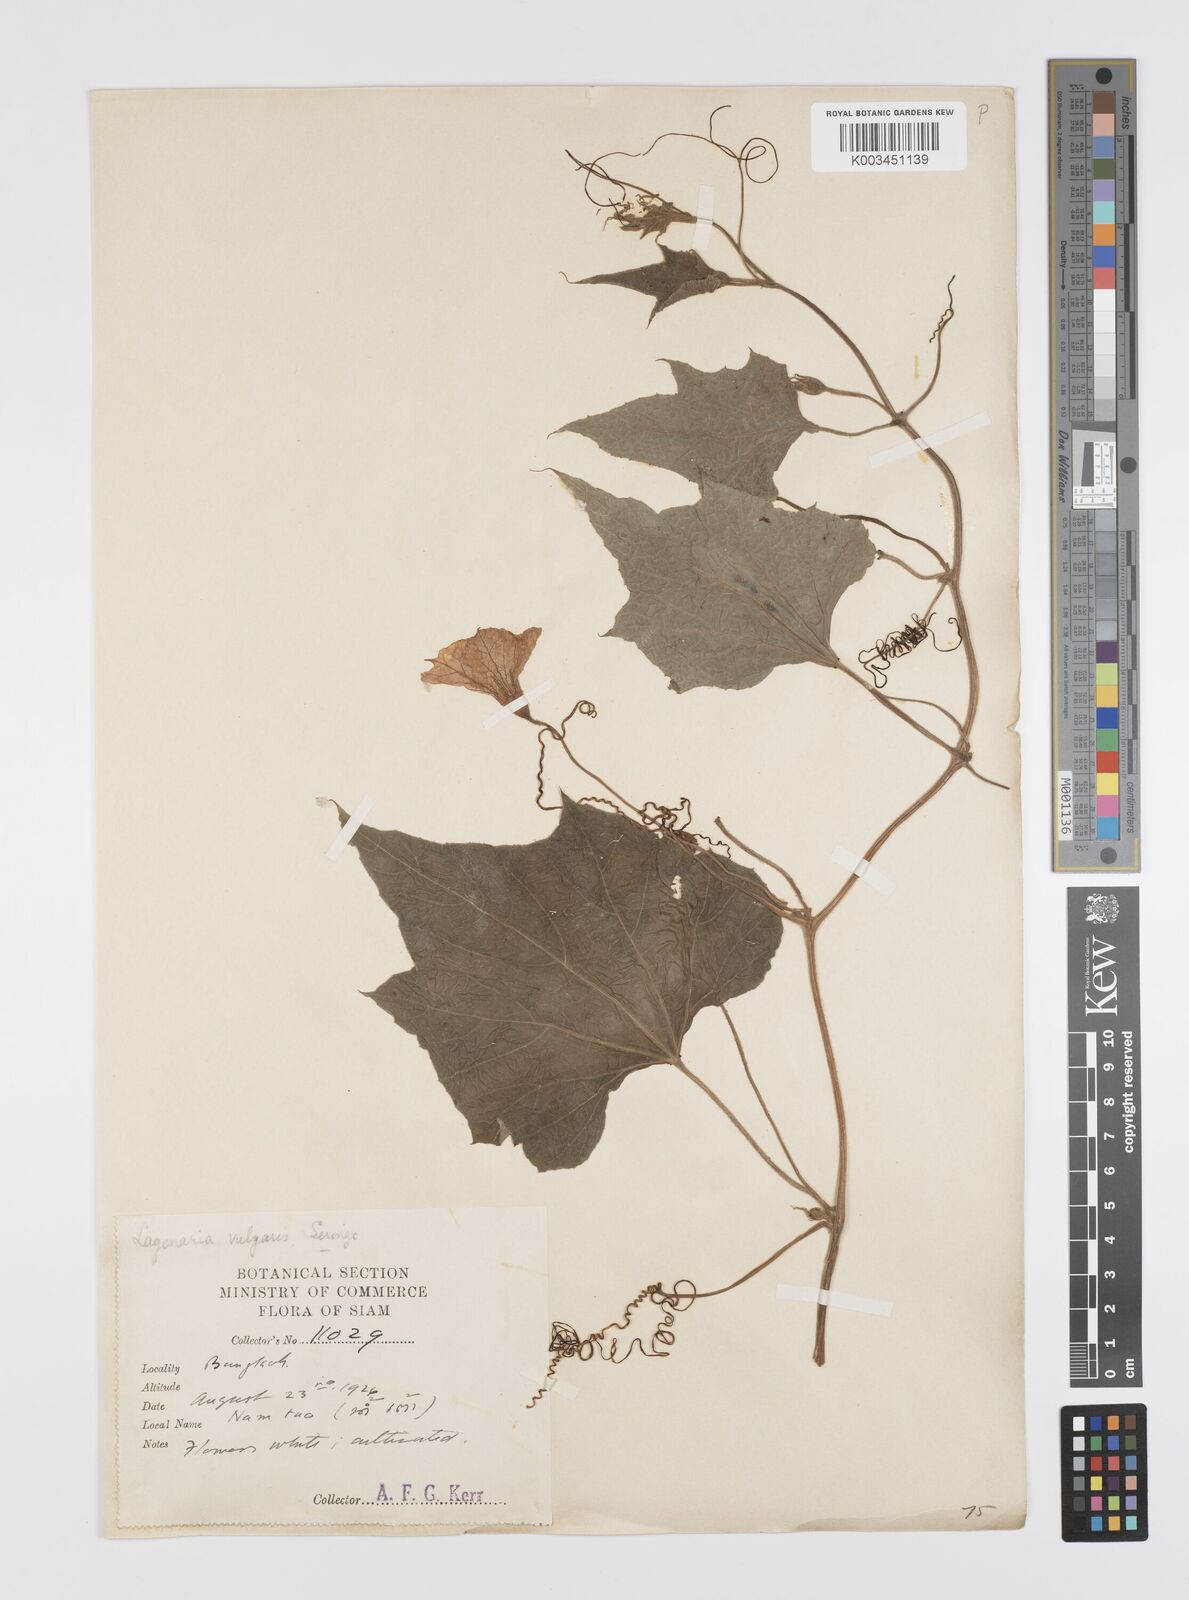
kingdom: Plantae
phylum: Tracheophyta
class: Magnoliopsida
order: Cucurbitales
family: Cucurbitaceae
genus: Lagenaria
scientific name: Lagenaria siceraria
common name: Bottle gourd
